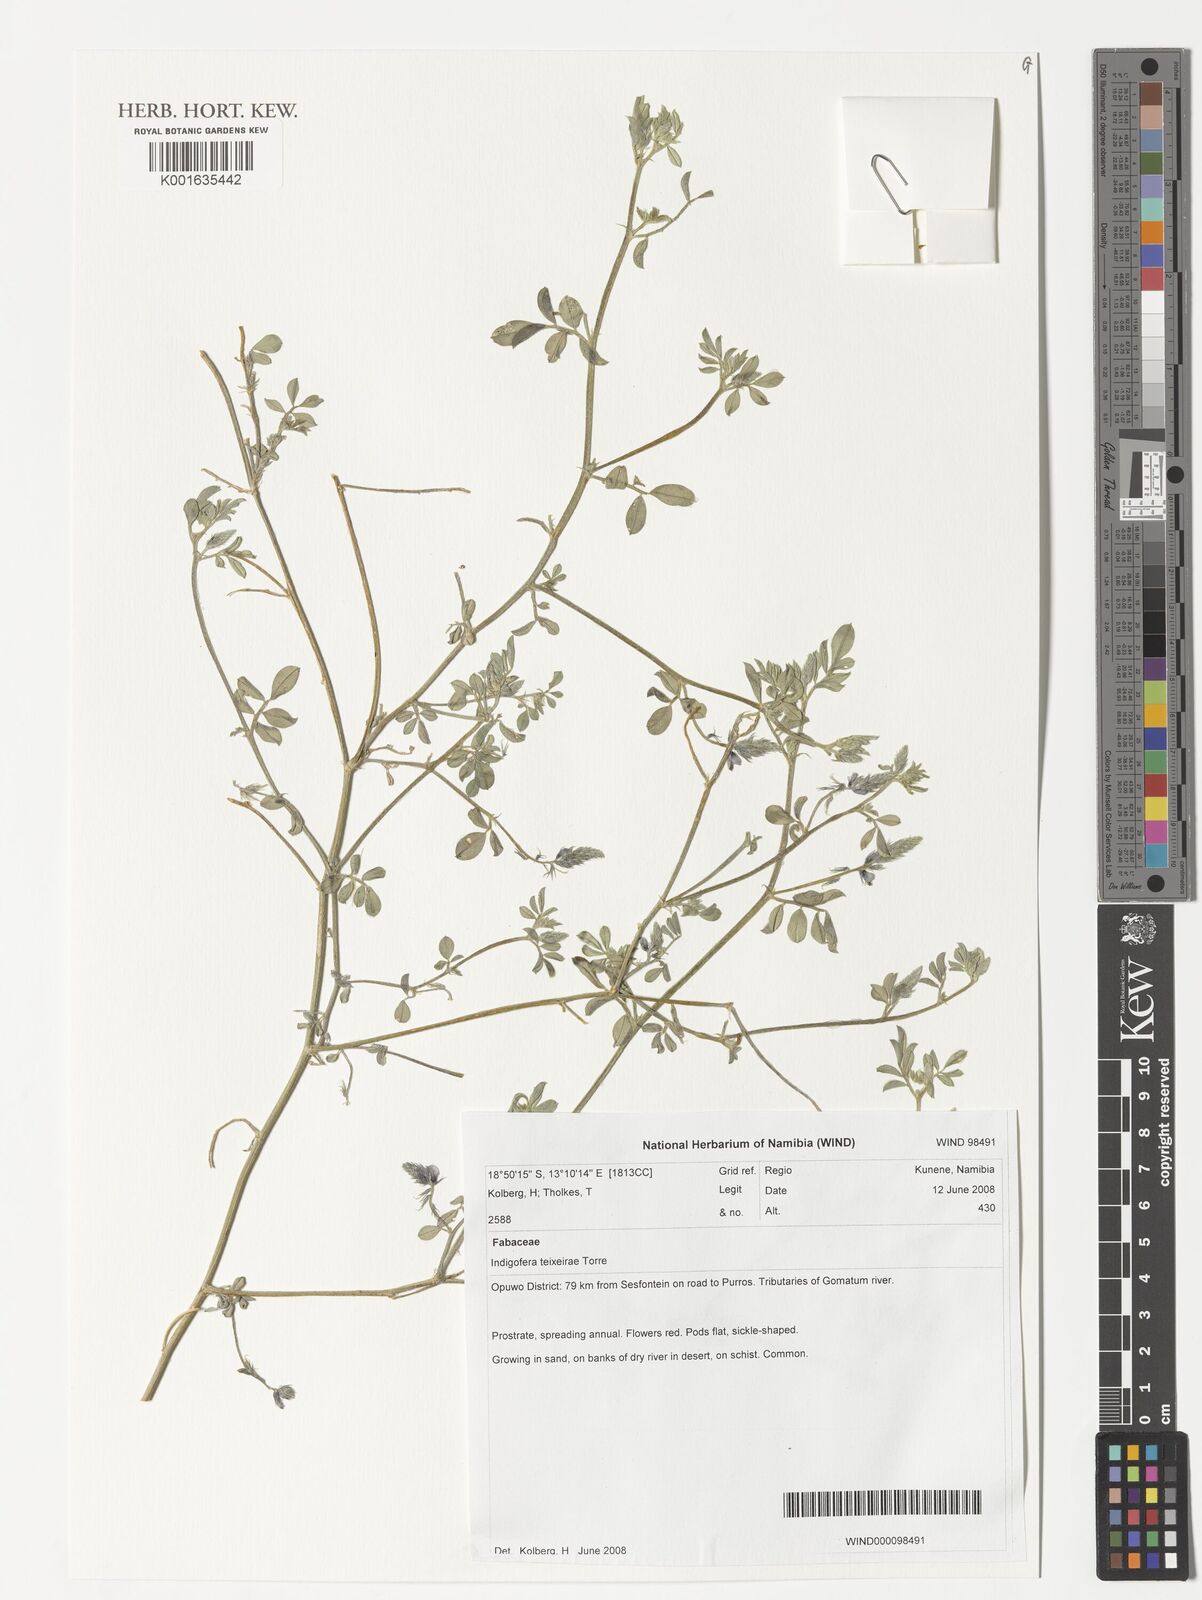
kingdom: Plantae
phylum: Tracheophyta
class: Magnoliopsida
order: Fabales
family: Fabaceae
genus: Indigofera
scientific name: Indigofera teixeirae
